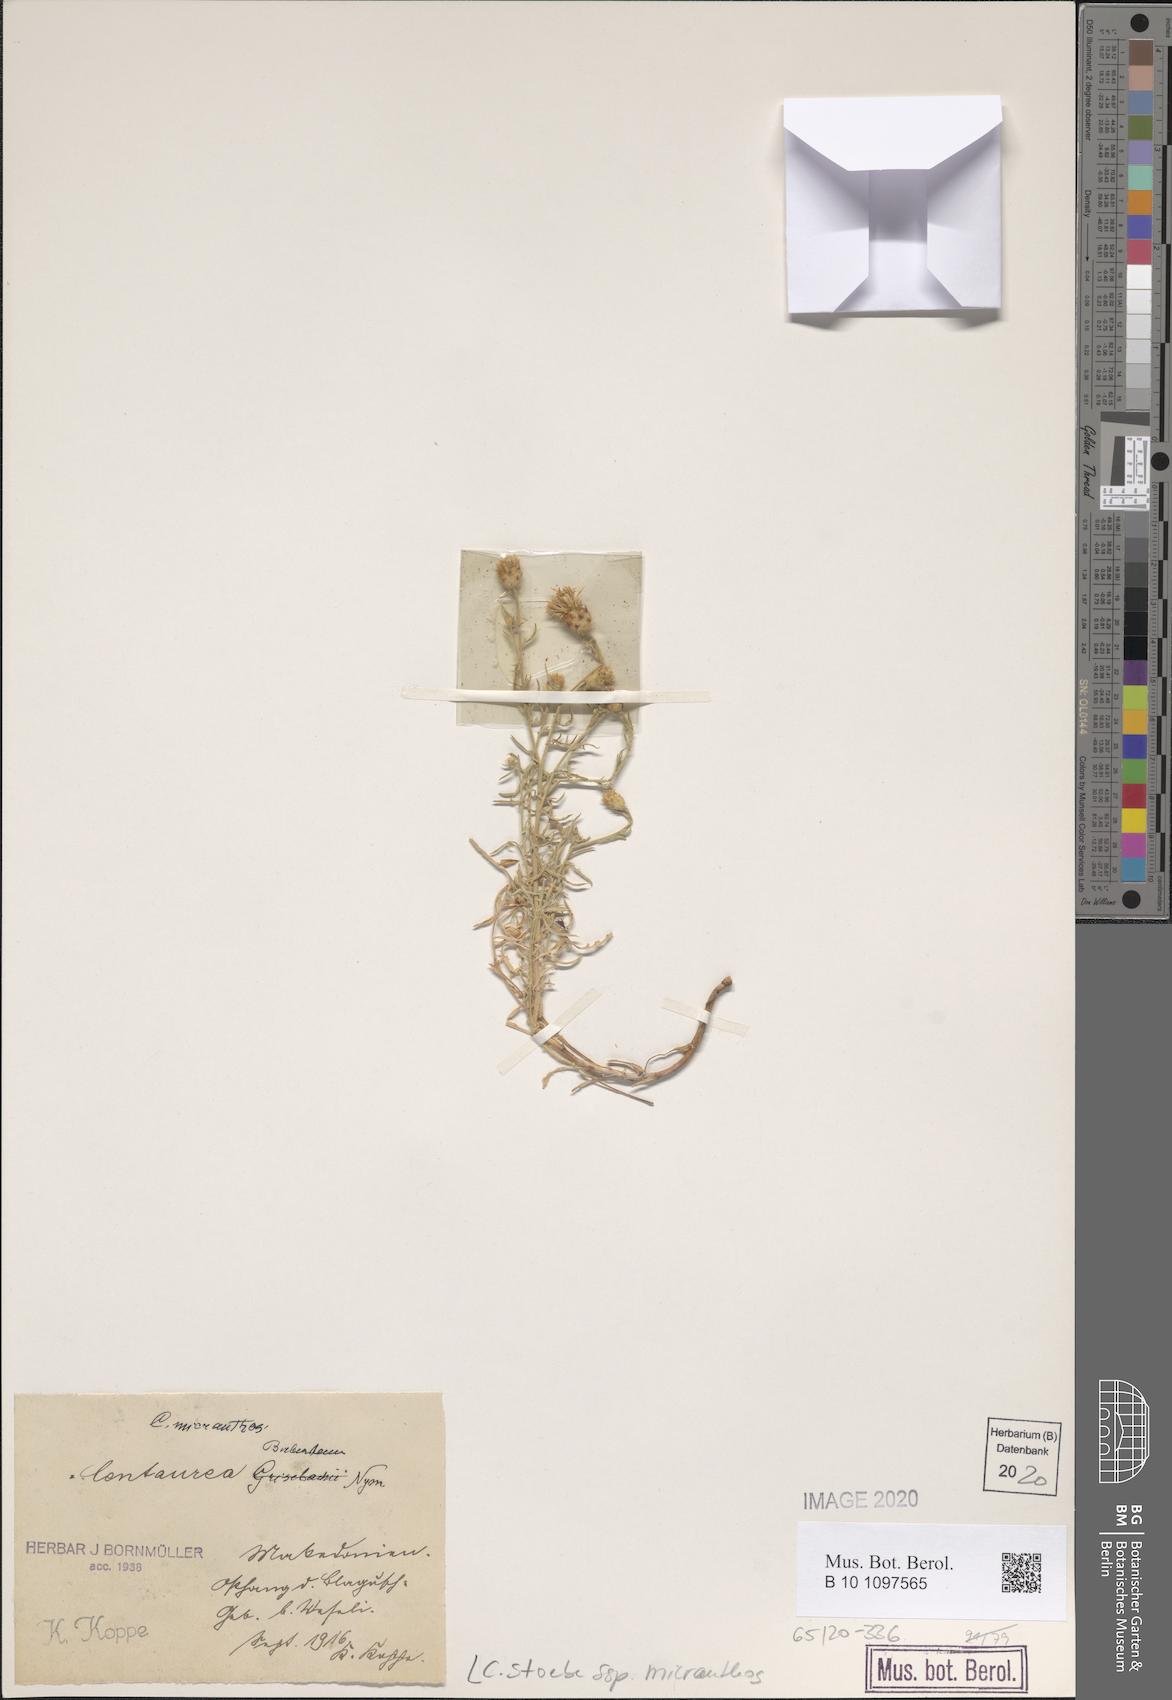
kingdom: Plantae
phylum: Tracheophyta
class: Magnoliopsida
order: Asterales
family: Asteraceae
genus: Centaurea
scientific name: Centaurea australis
